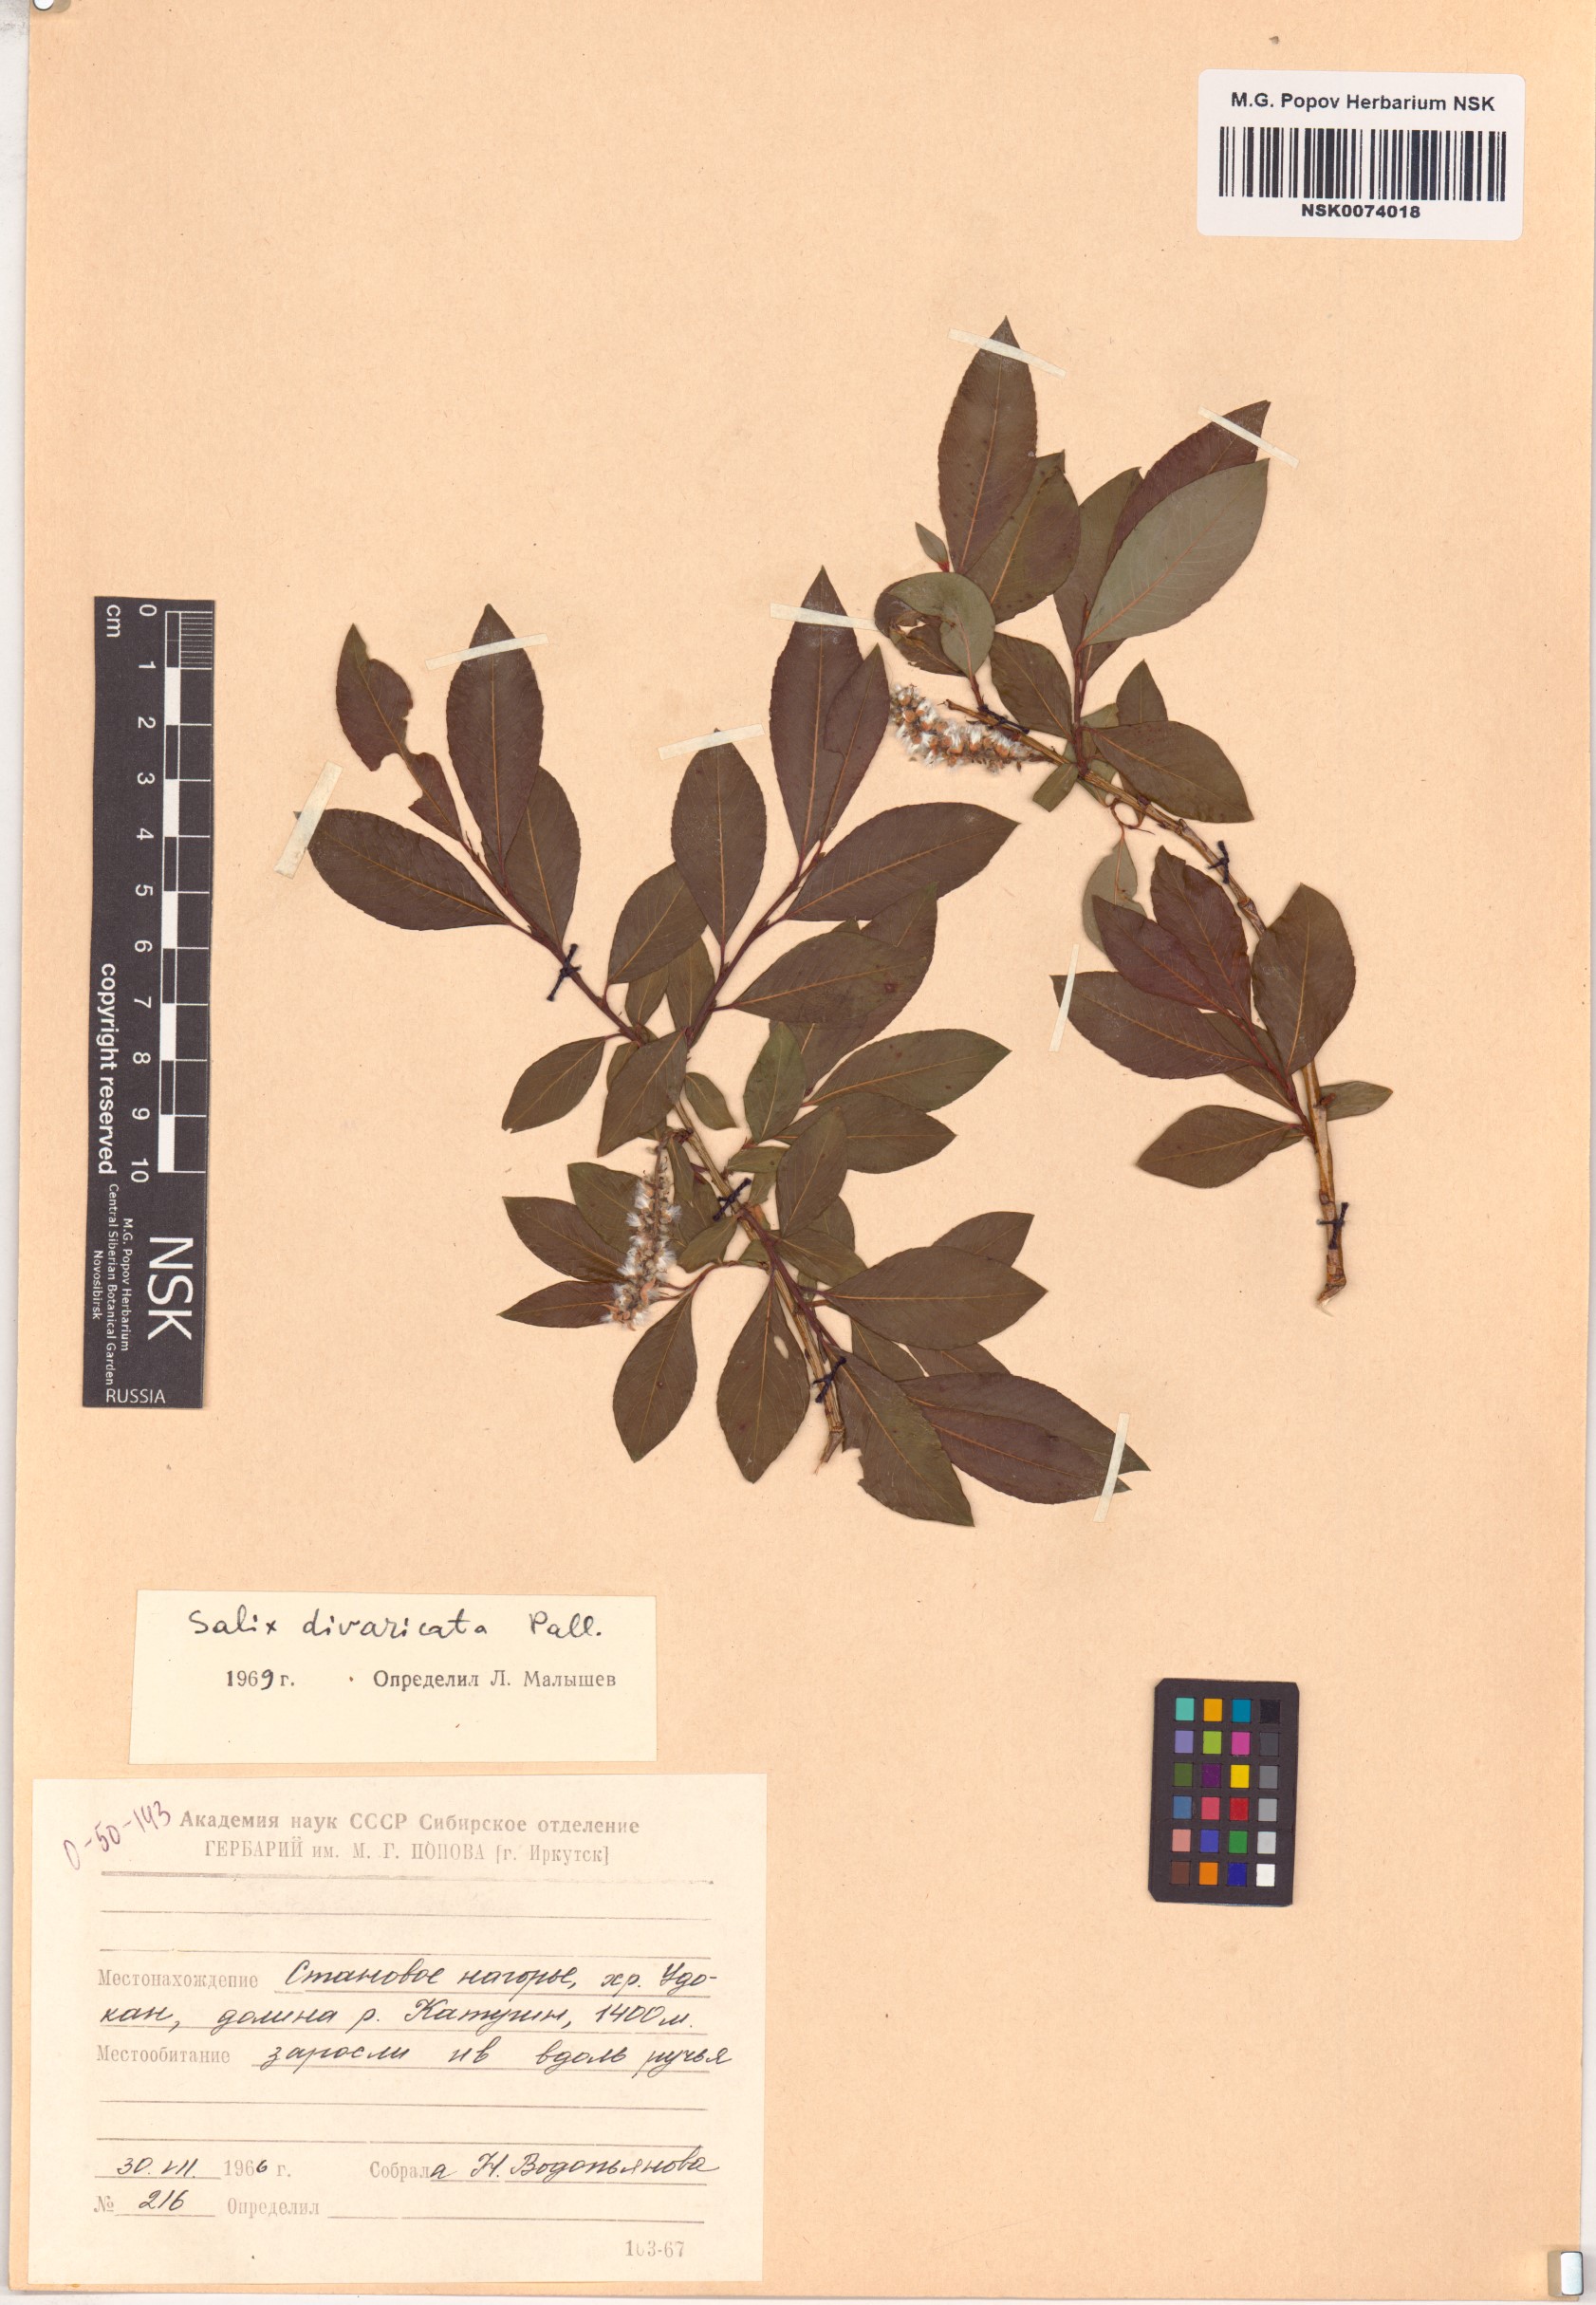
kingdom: Plantae
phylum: Tracheophyta
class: Magnoliopsida
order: Malpighiales
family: Salicaceae
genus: Salix
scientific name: Salix divaricata
